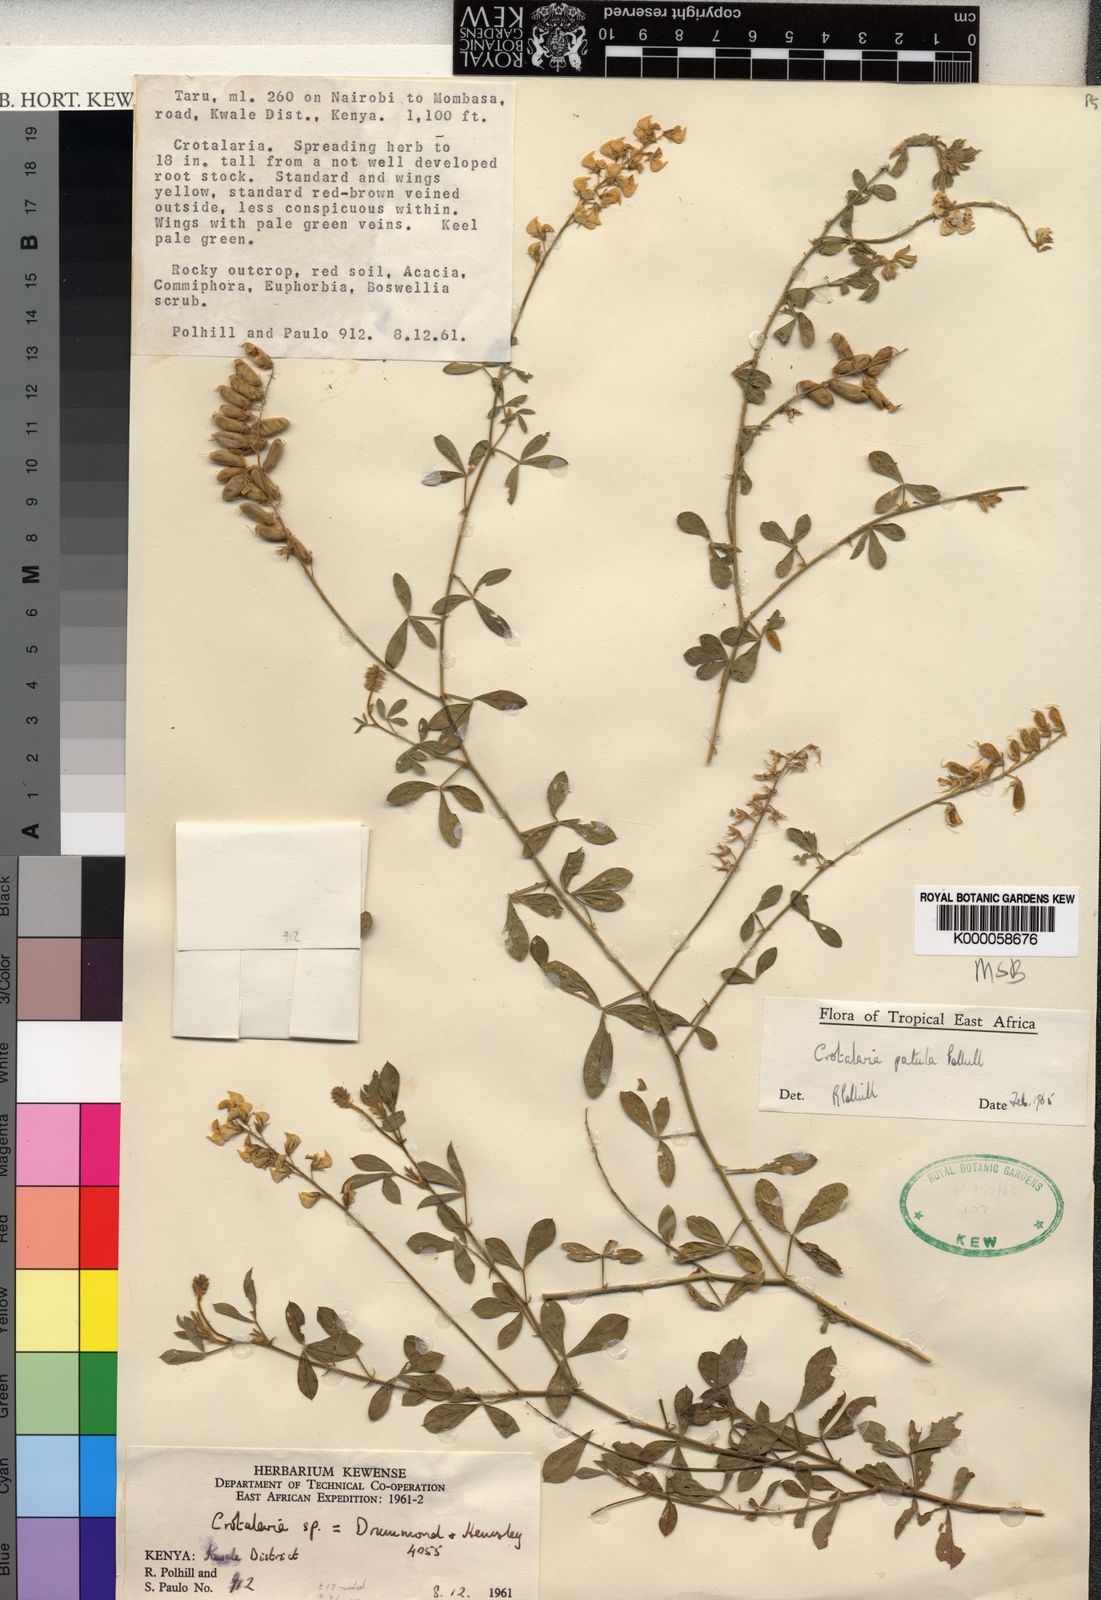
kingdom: Plantae
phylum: Tracheophyta
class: Magnoliopsida
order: Fabales
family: Fabaceae
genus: Crotalaria
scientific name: Crotalaria patula
